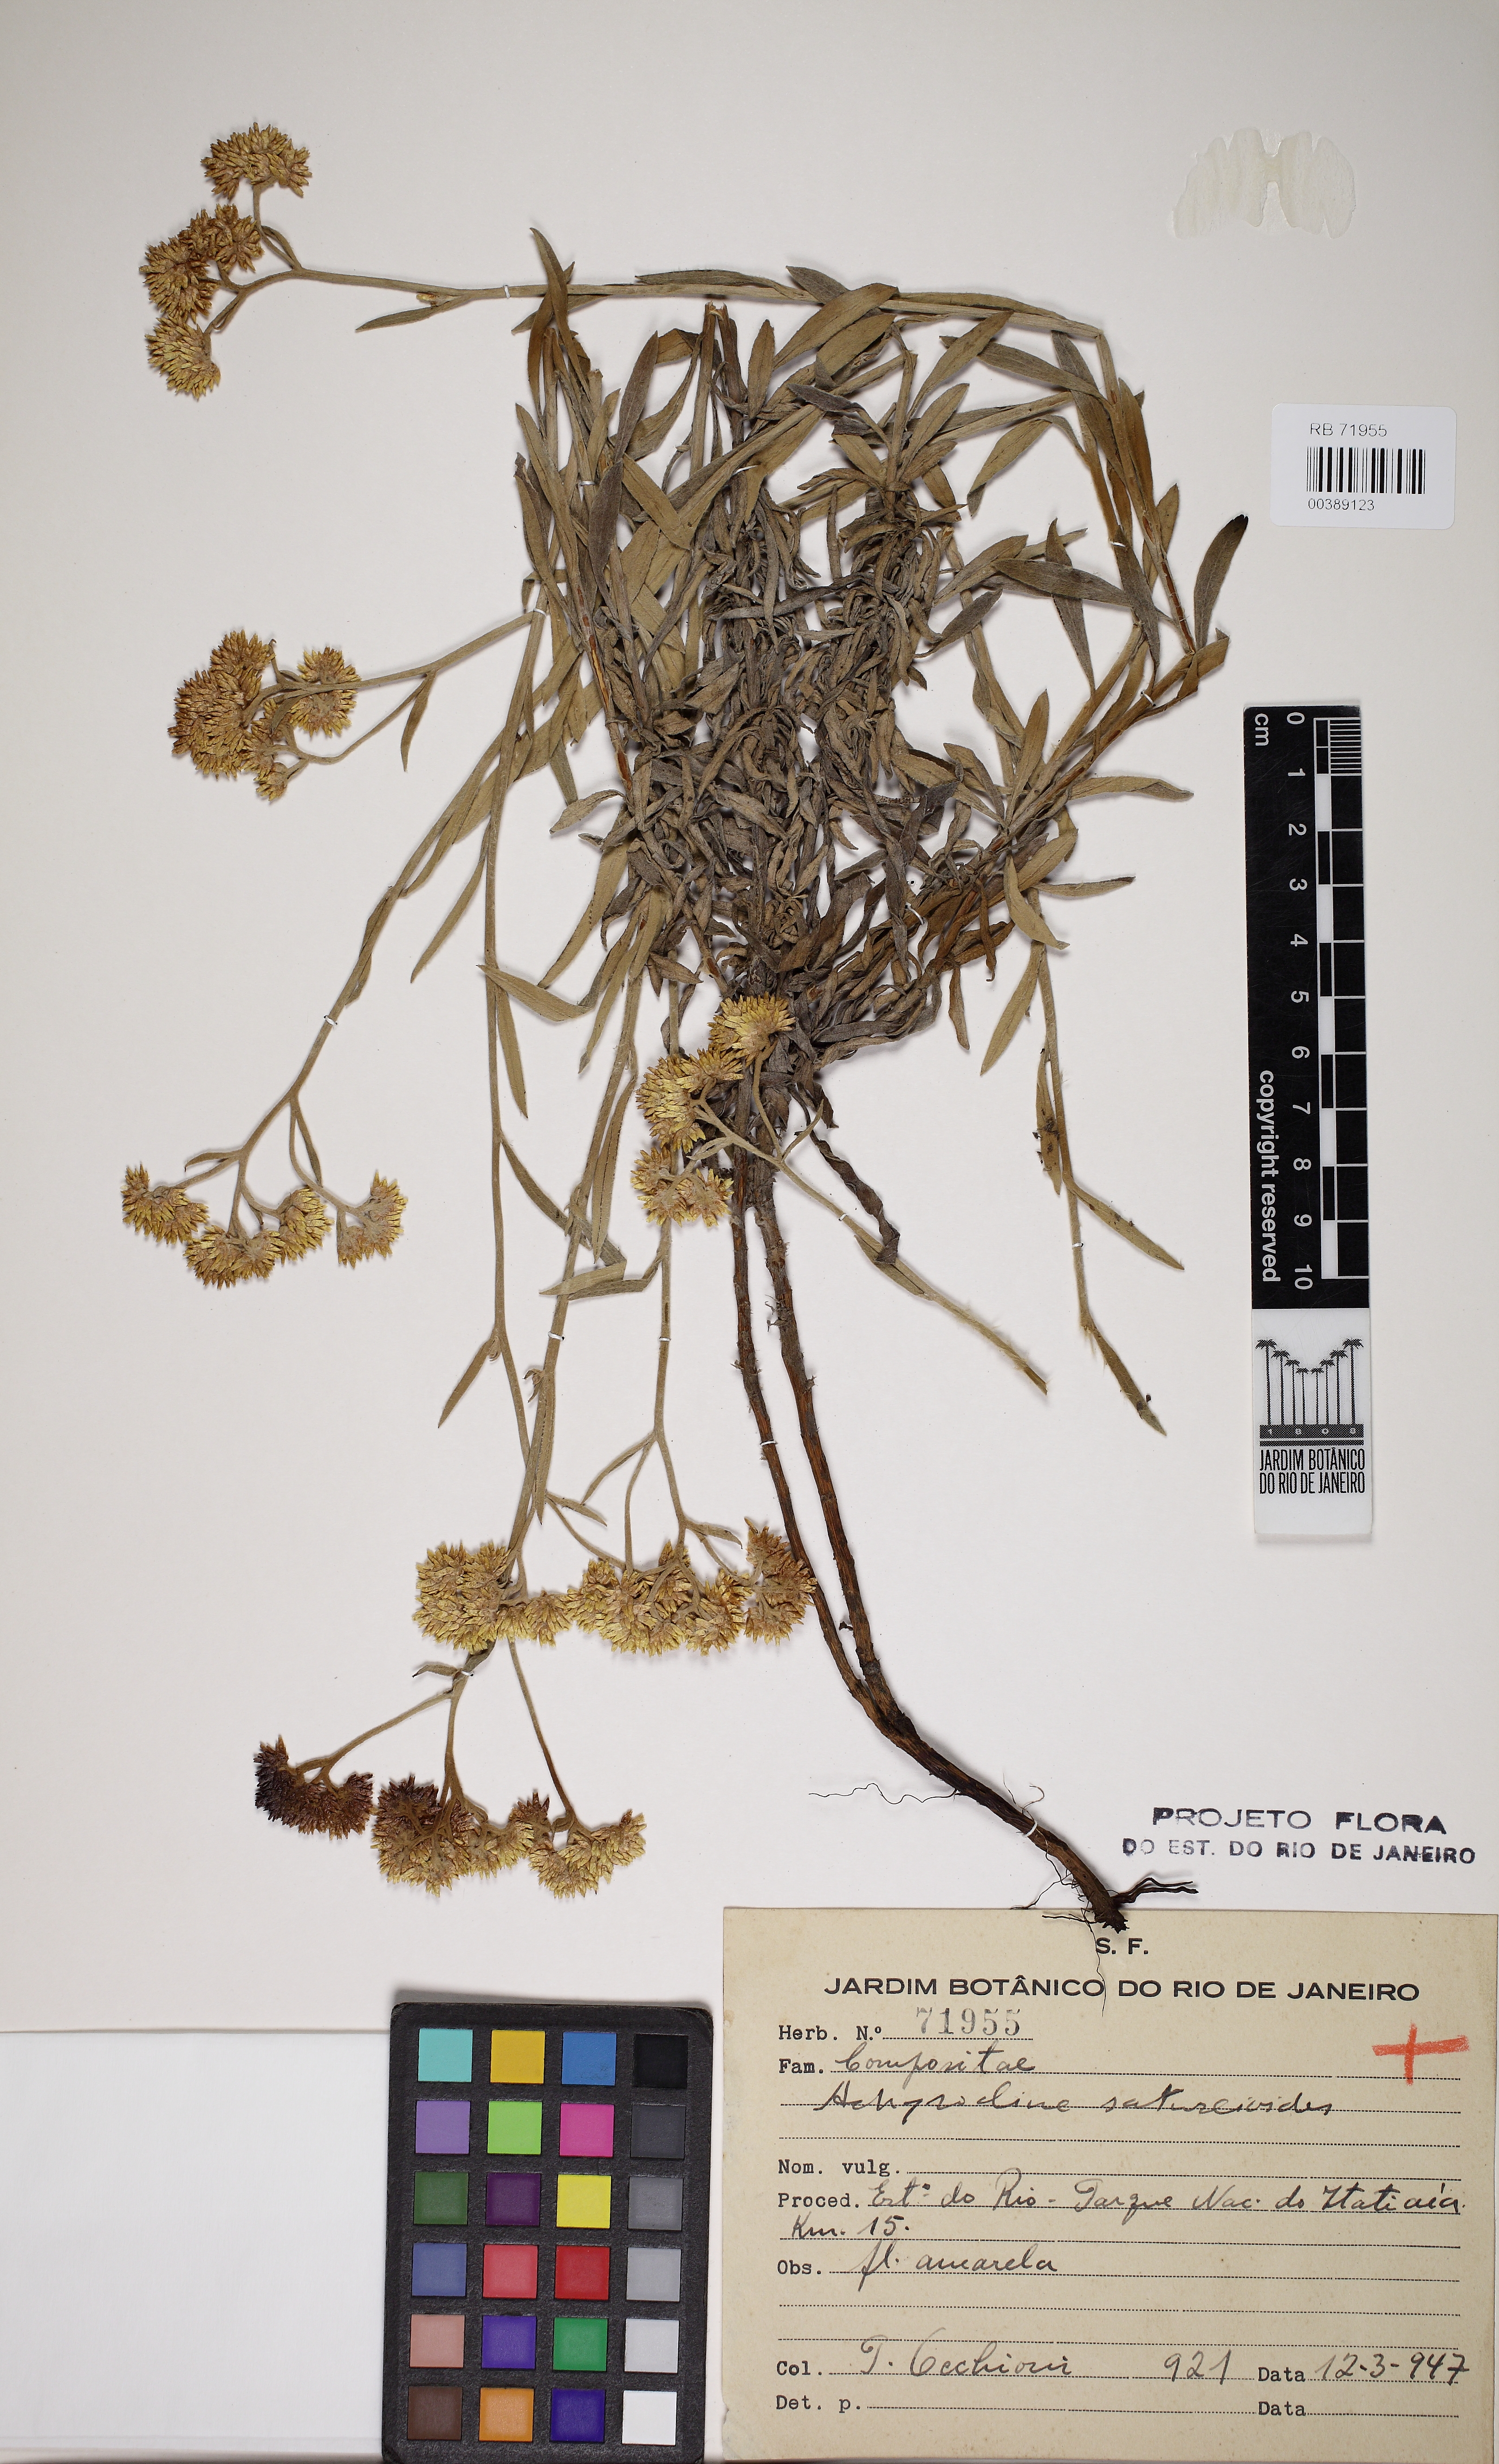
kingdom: Plantae
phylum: Tracheophyta
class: Magnoliopsida
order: Asterales
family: Asteraceae
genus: Achyrocline
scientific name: Achyrocline satureioides
